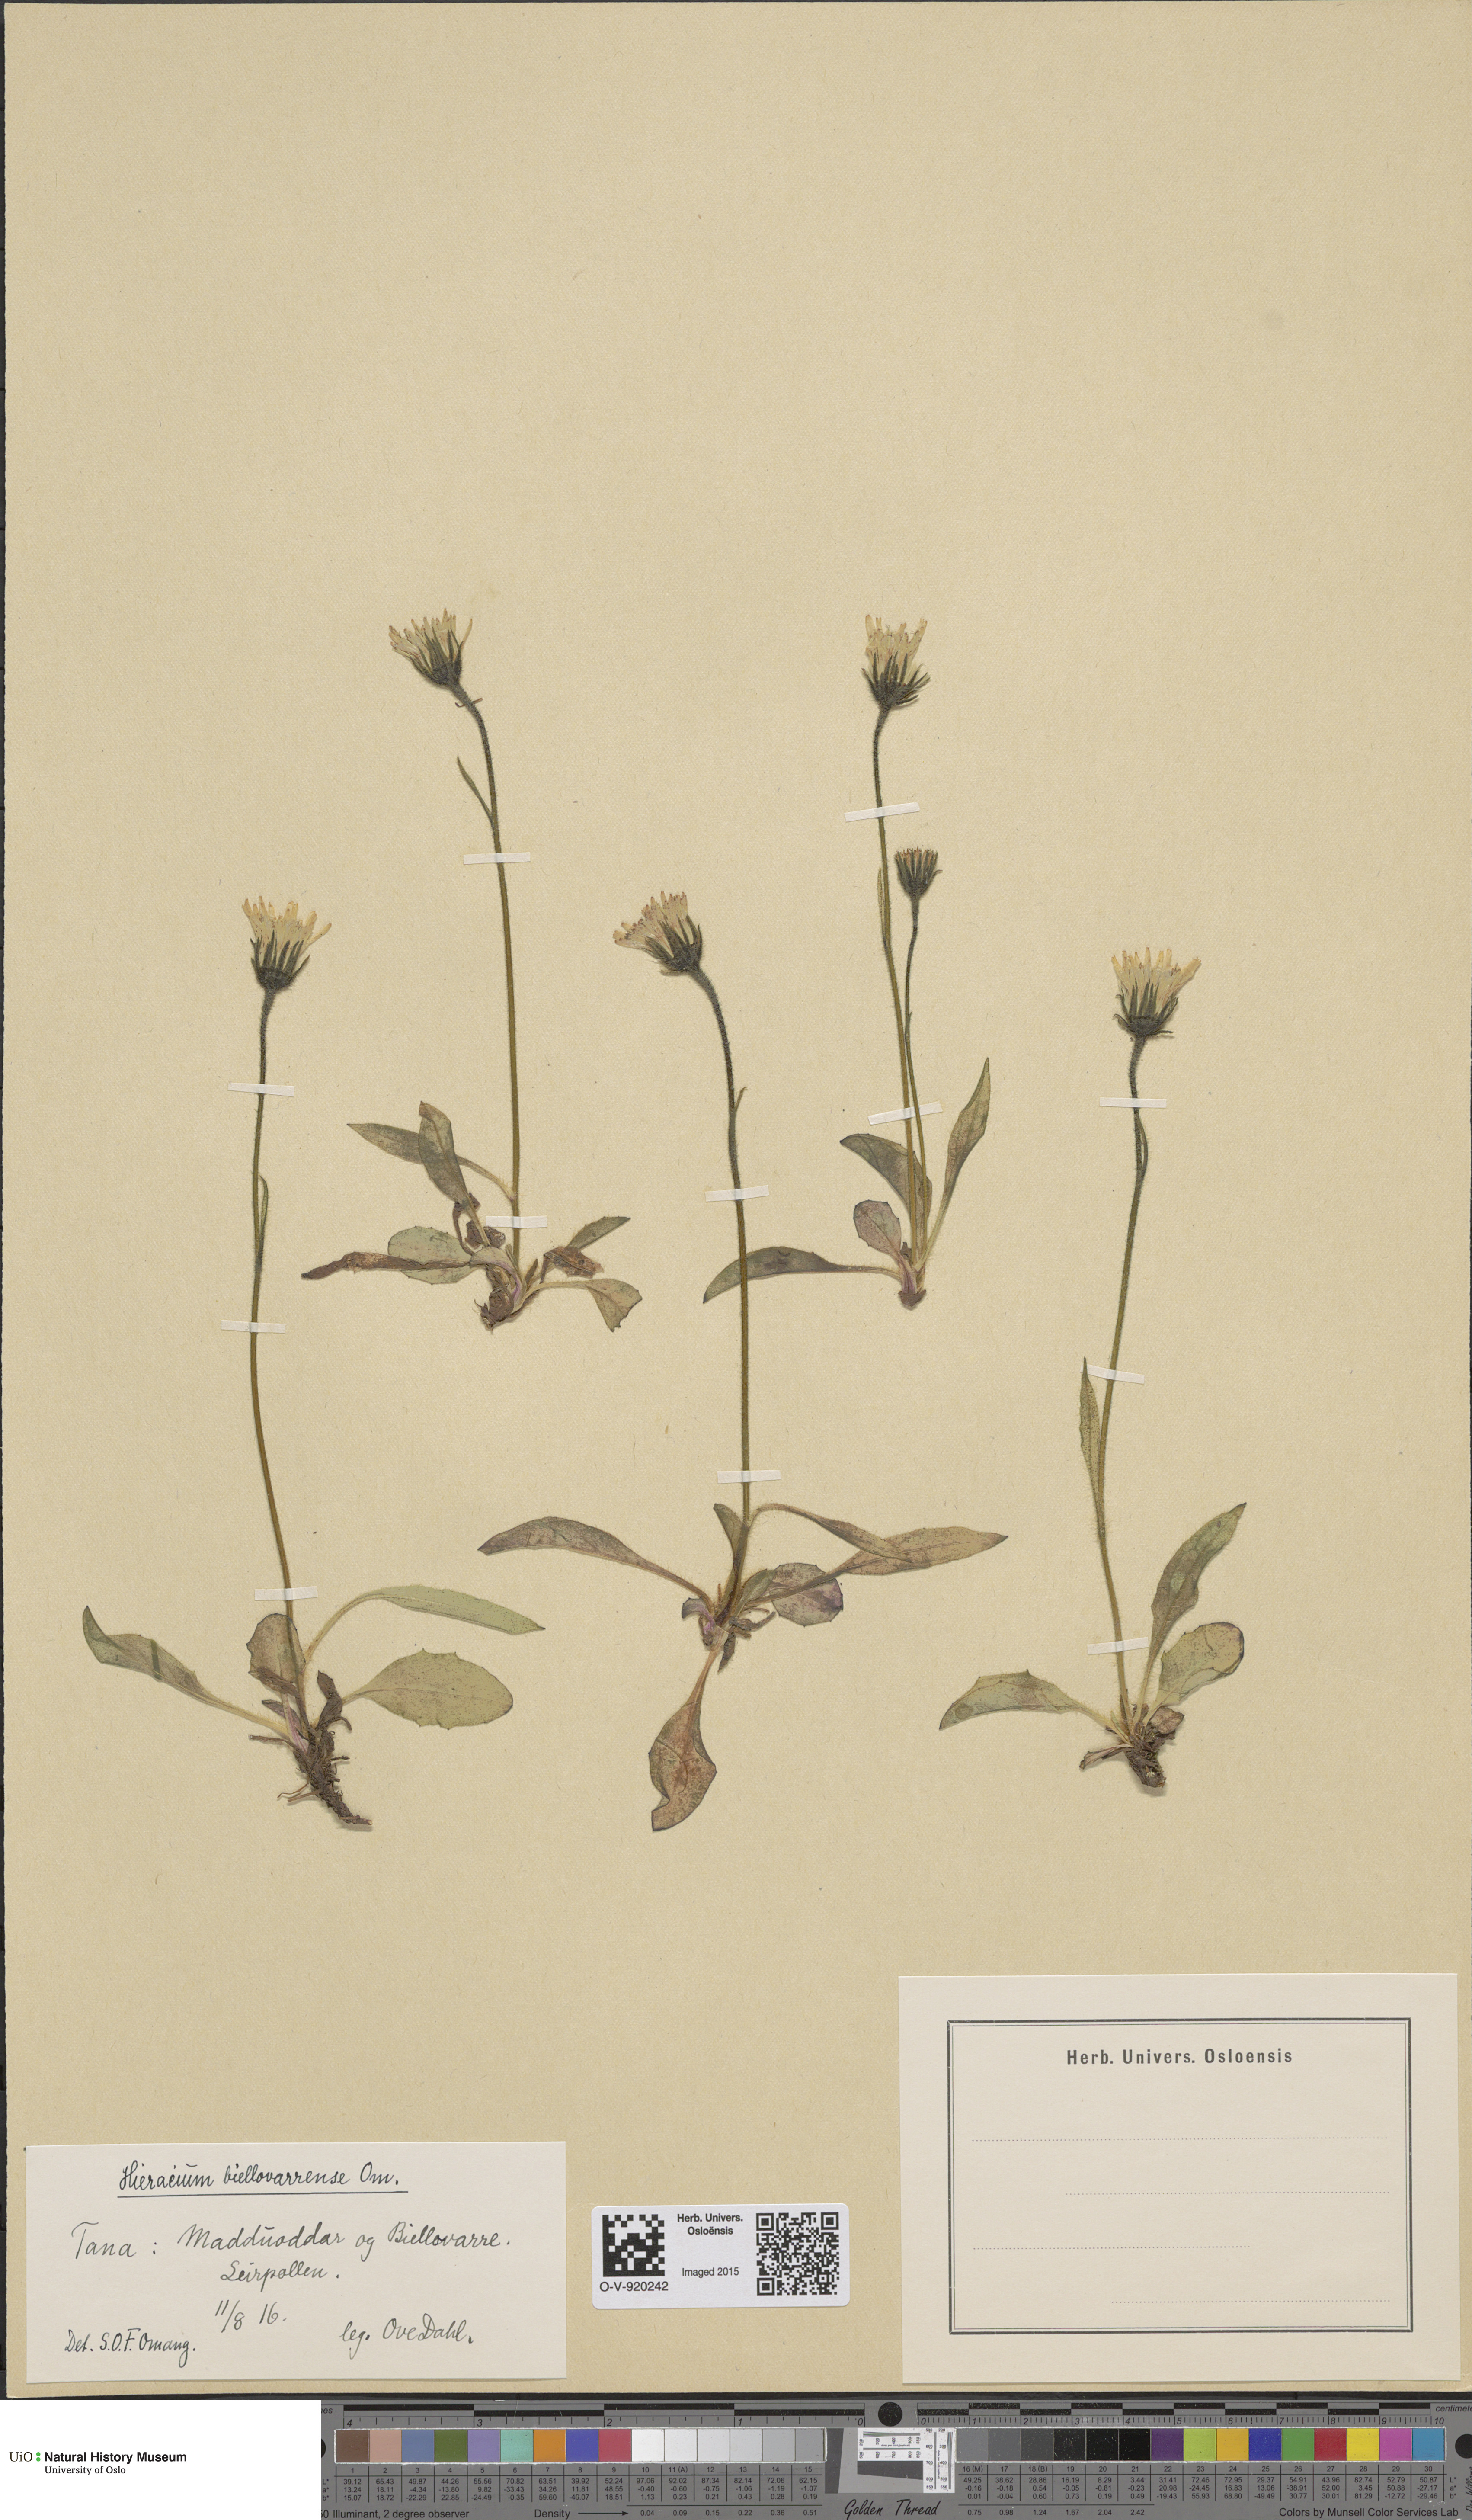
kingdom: Plantae
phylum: Tracheophyta
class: Magnoliopsida
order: Asterales
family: Asteraceae
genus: Hieracium
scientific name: Hieracium
